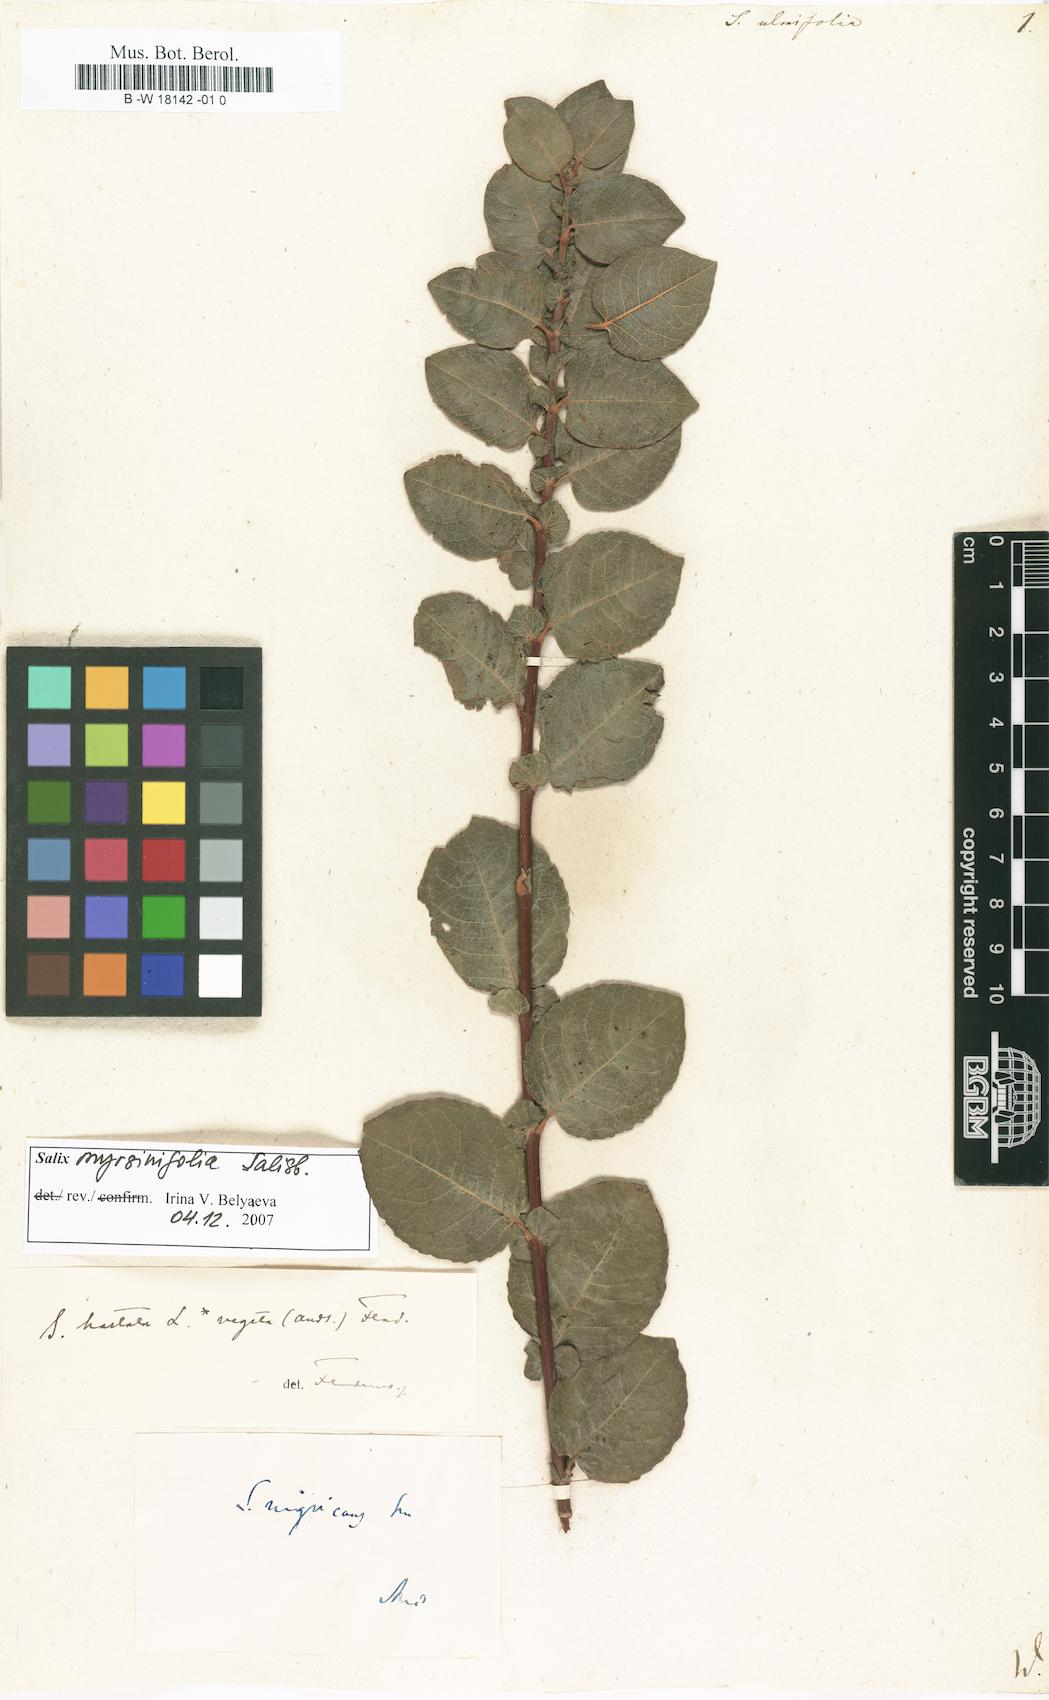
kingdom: Plantae
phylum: Tracheophyta
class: Magnoliopsida
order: Malpighiales
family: Salicaceae
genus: Salix
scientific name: Salix ulmifolia
